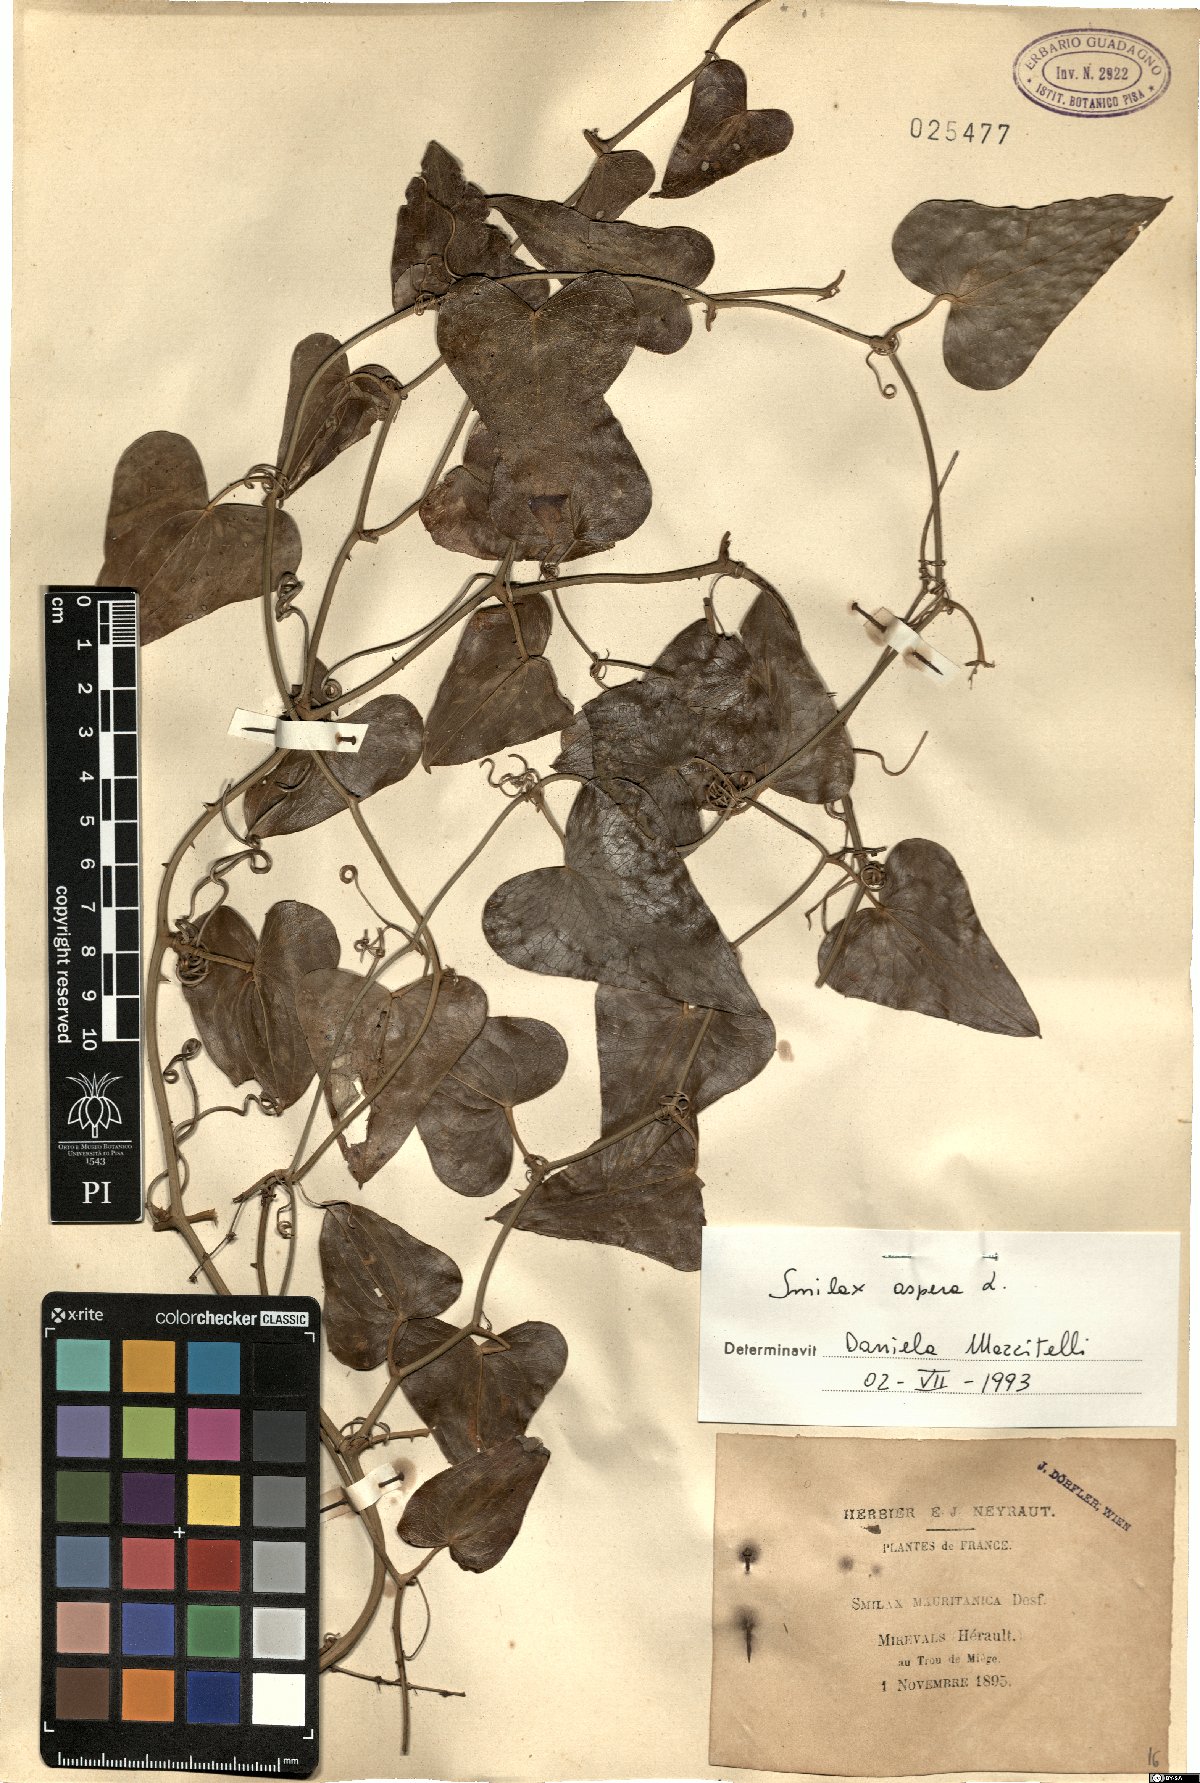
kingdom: Plantae
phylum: Tracheophyta
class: Liliopsida
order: Liliales
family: Smilacaceae
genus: Smilax
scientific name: Smilax aspera
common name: Common smilax
